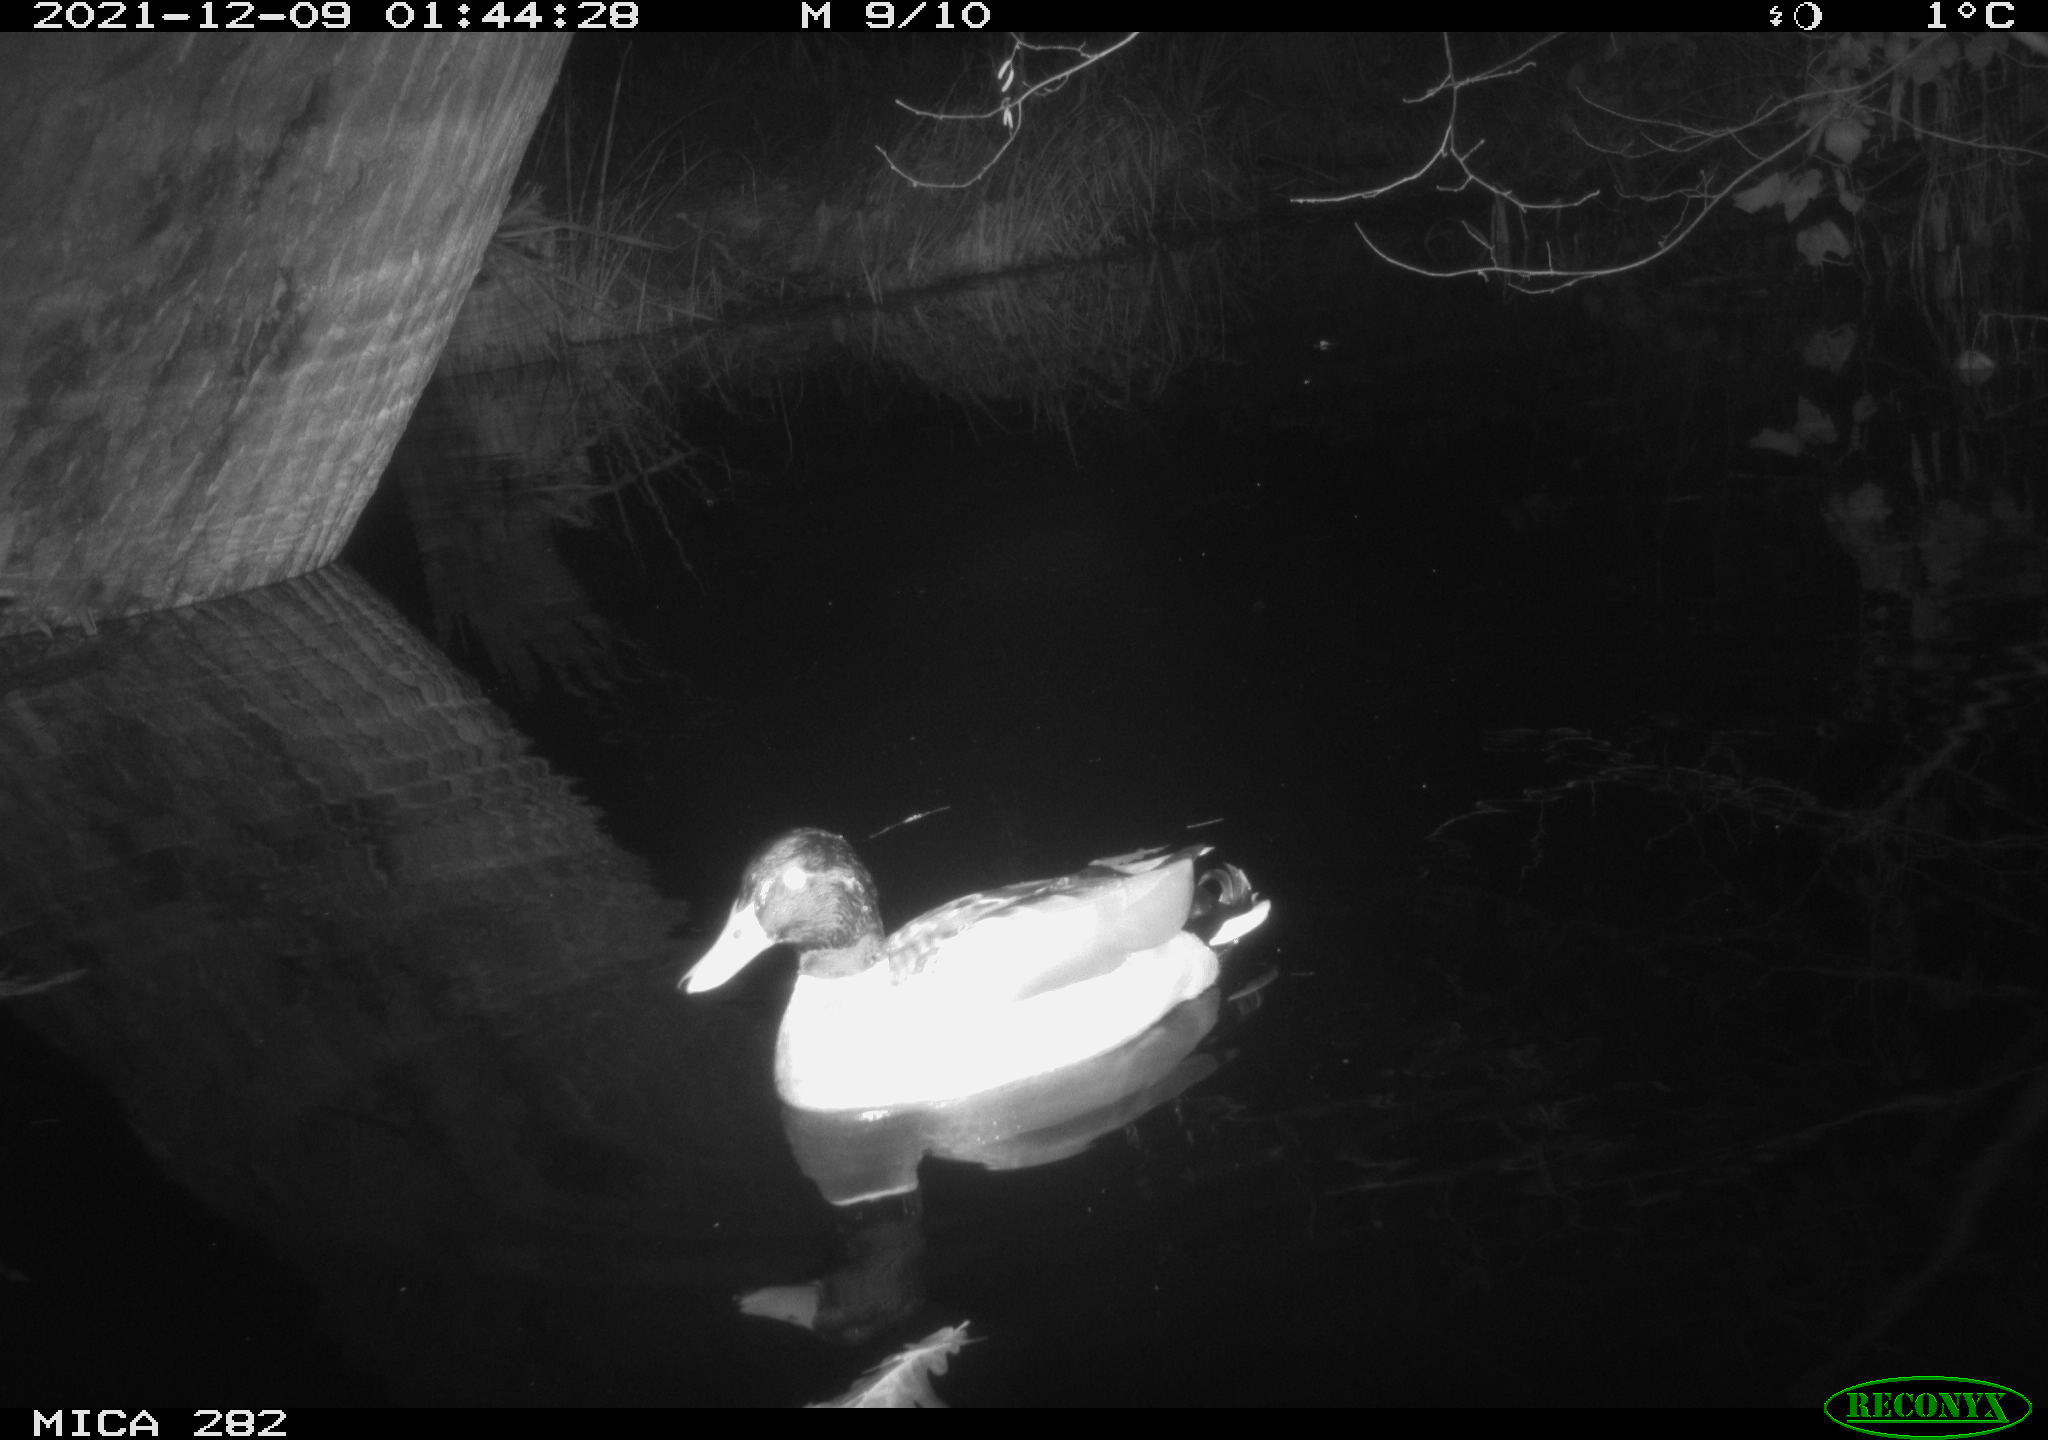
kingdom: Animalia
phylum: Chordata
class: Aves
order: Anseriformes
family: Anatidae
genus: Mareca
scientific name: Mareca strepera
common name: Gadwall
